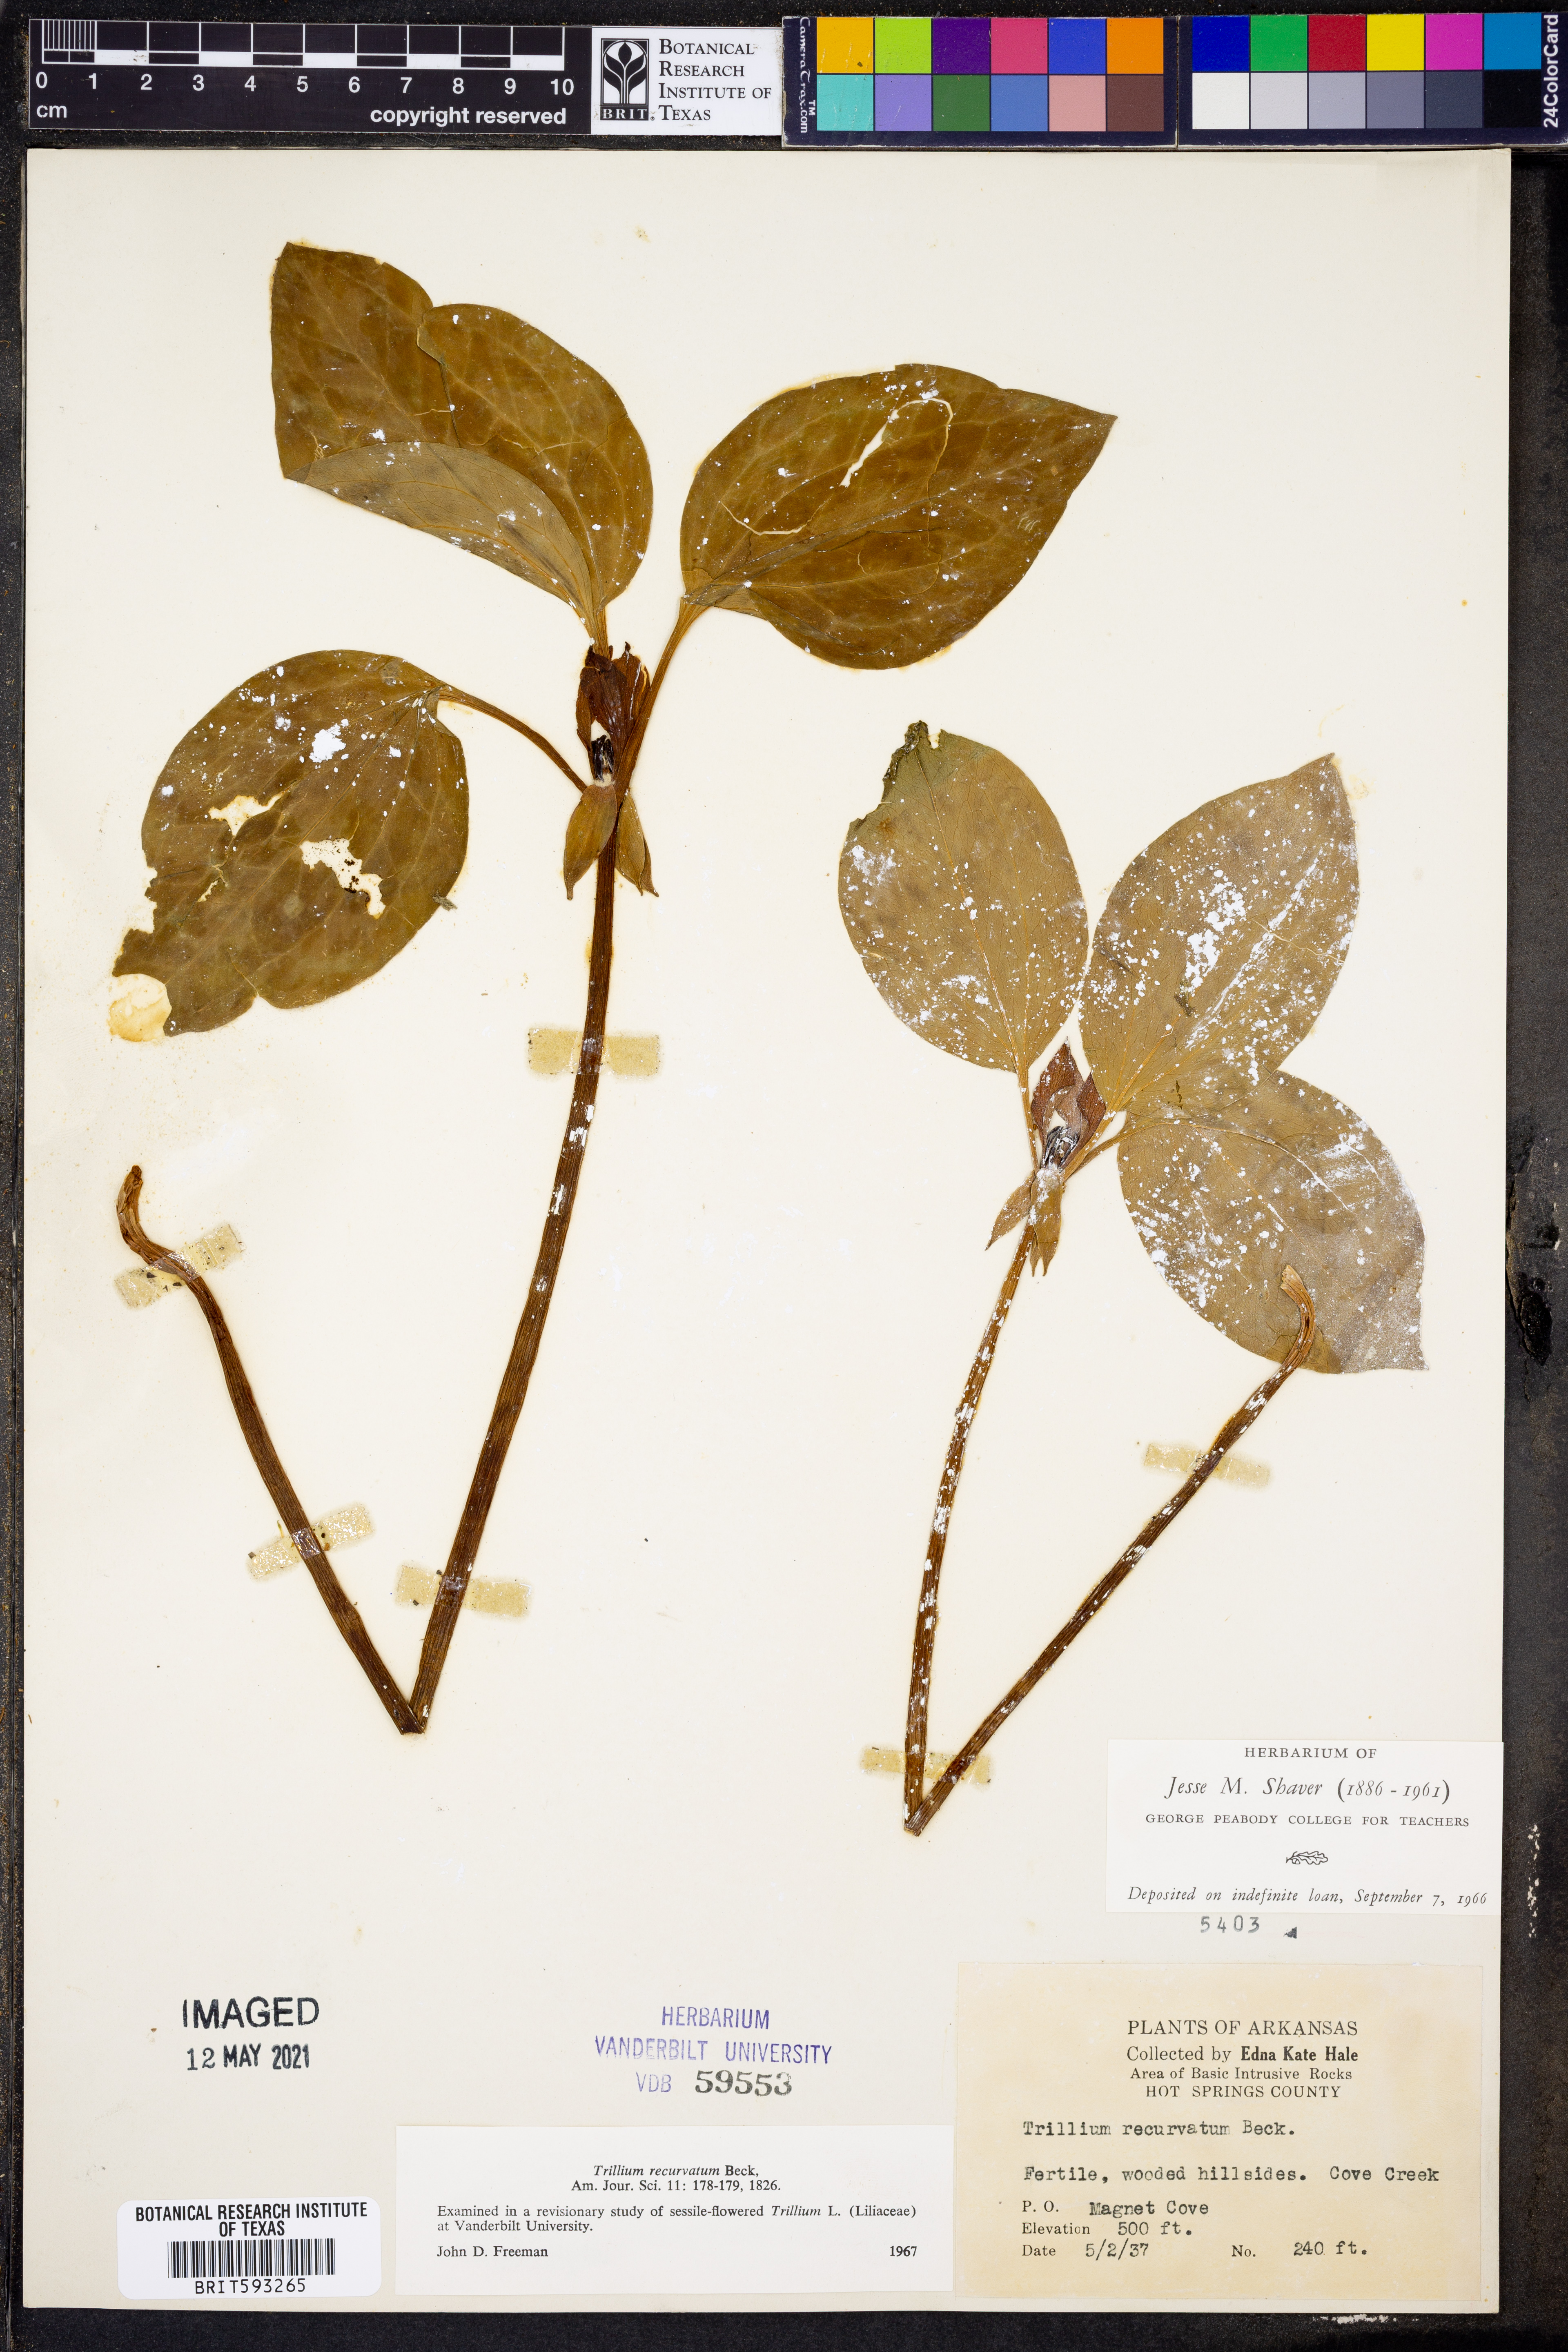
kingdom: Plantae
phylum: Tracheophyta
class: Liliopsida
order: Liliales
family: Melanthiaceae
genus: Trillium
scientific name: Trillium recurvatum
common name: Bloody butcher
